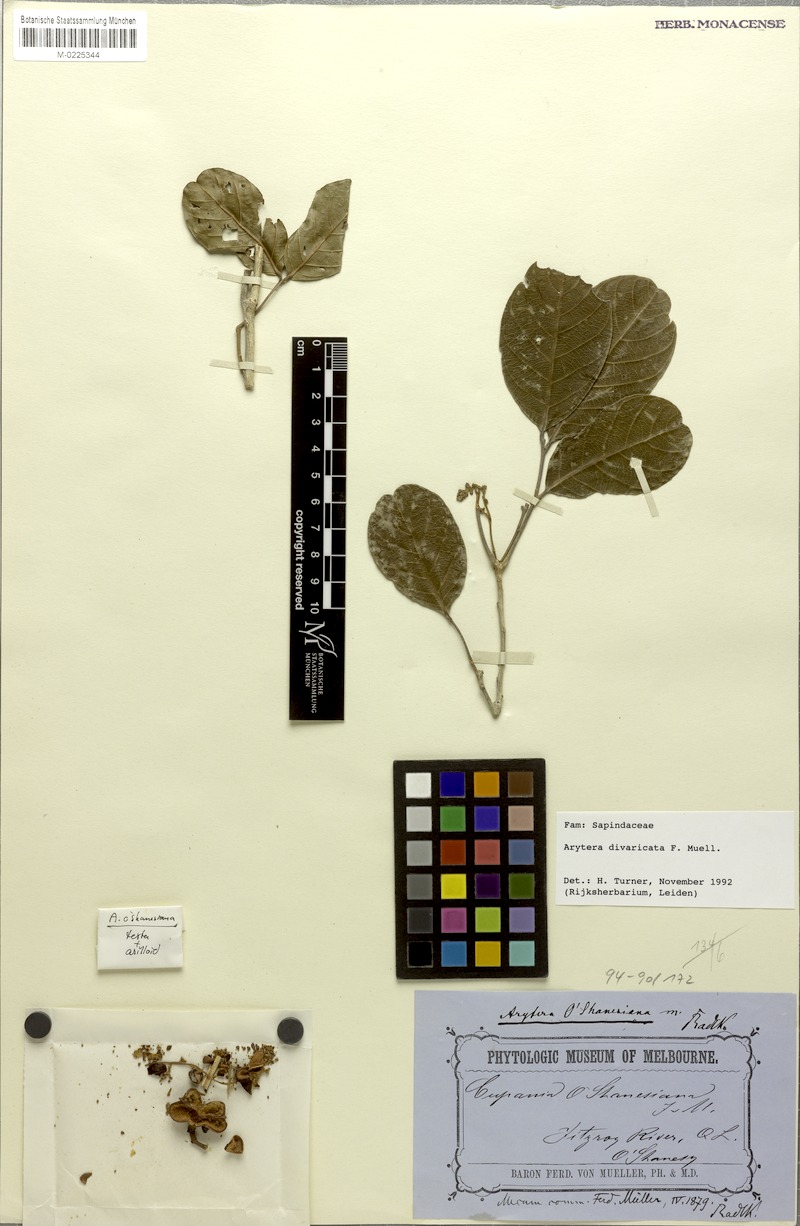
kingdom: Plantae
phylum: Tracheophyta
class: Magnoliopsida
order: Sapindales
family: Sapindaceae
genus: Arytera
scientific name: Arytera divaricata
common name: Coogera
